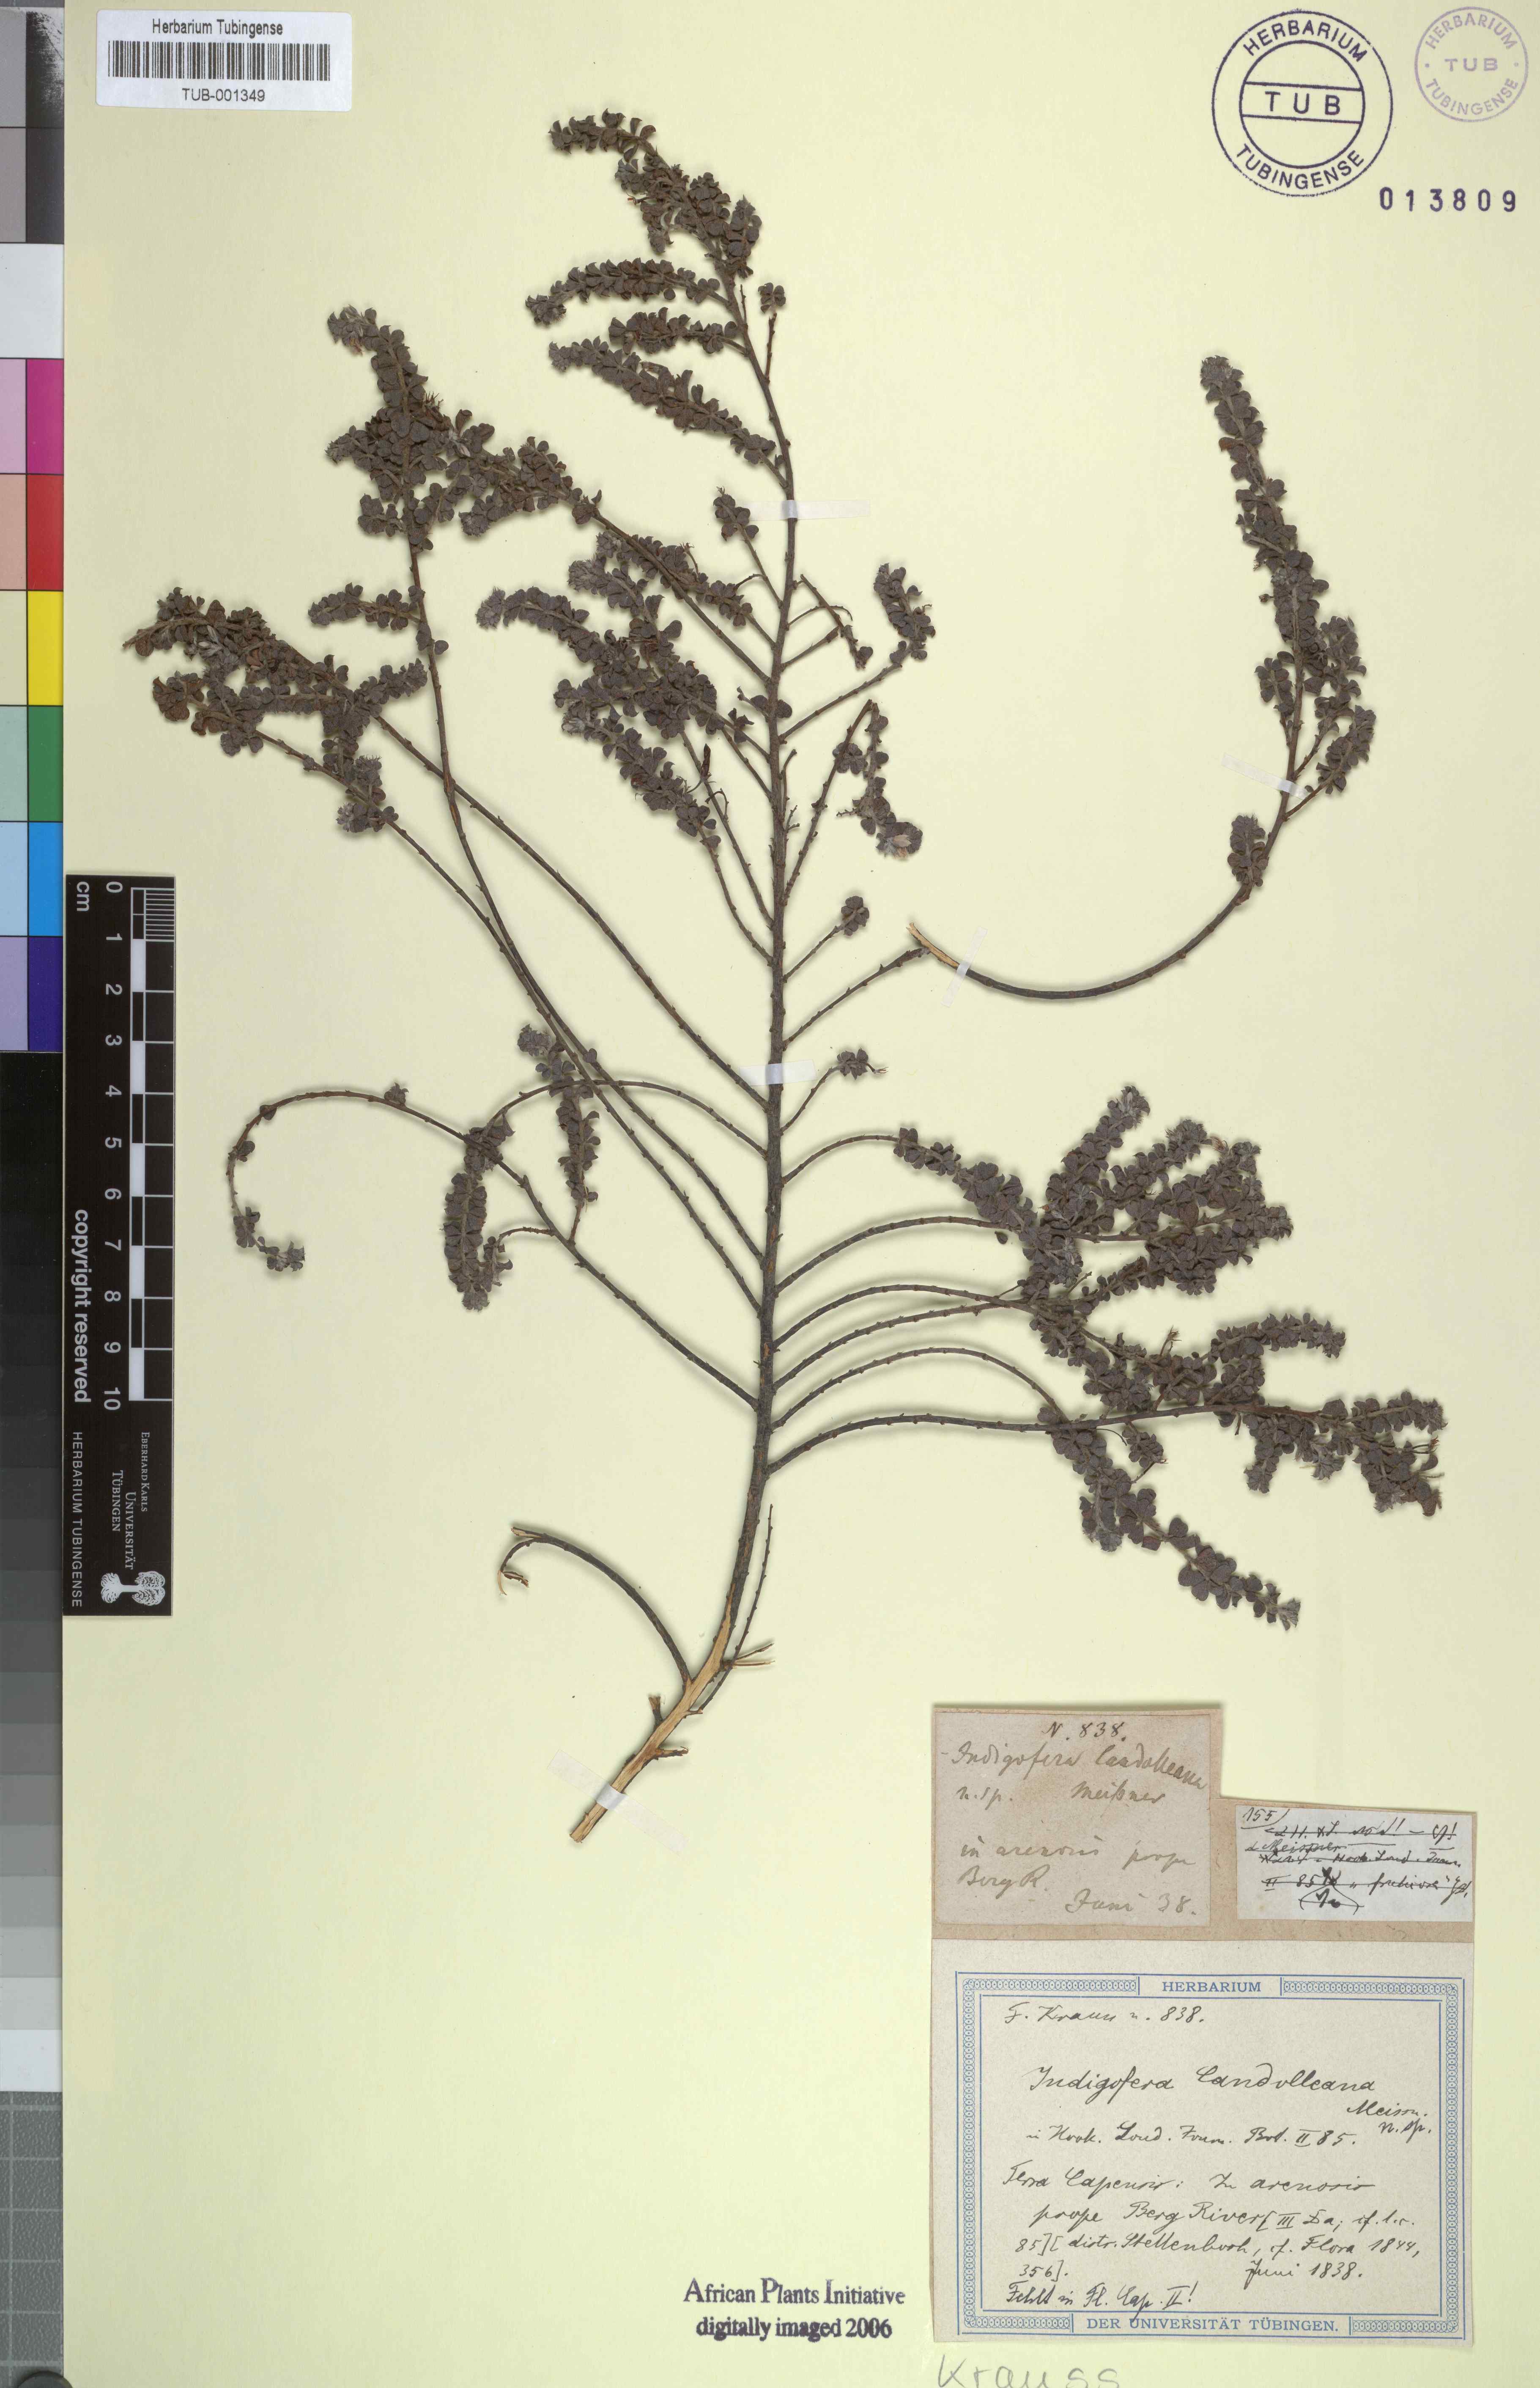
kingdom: Plantae
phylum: Tracheophyta
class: Magnoliopsida
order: Fabales
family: Fabaceae
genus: Indigofera
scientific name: Indigofera candolleana
